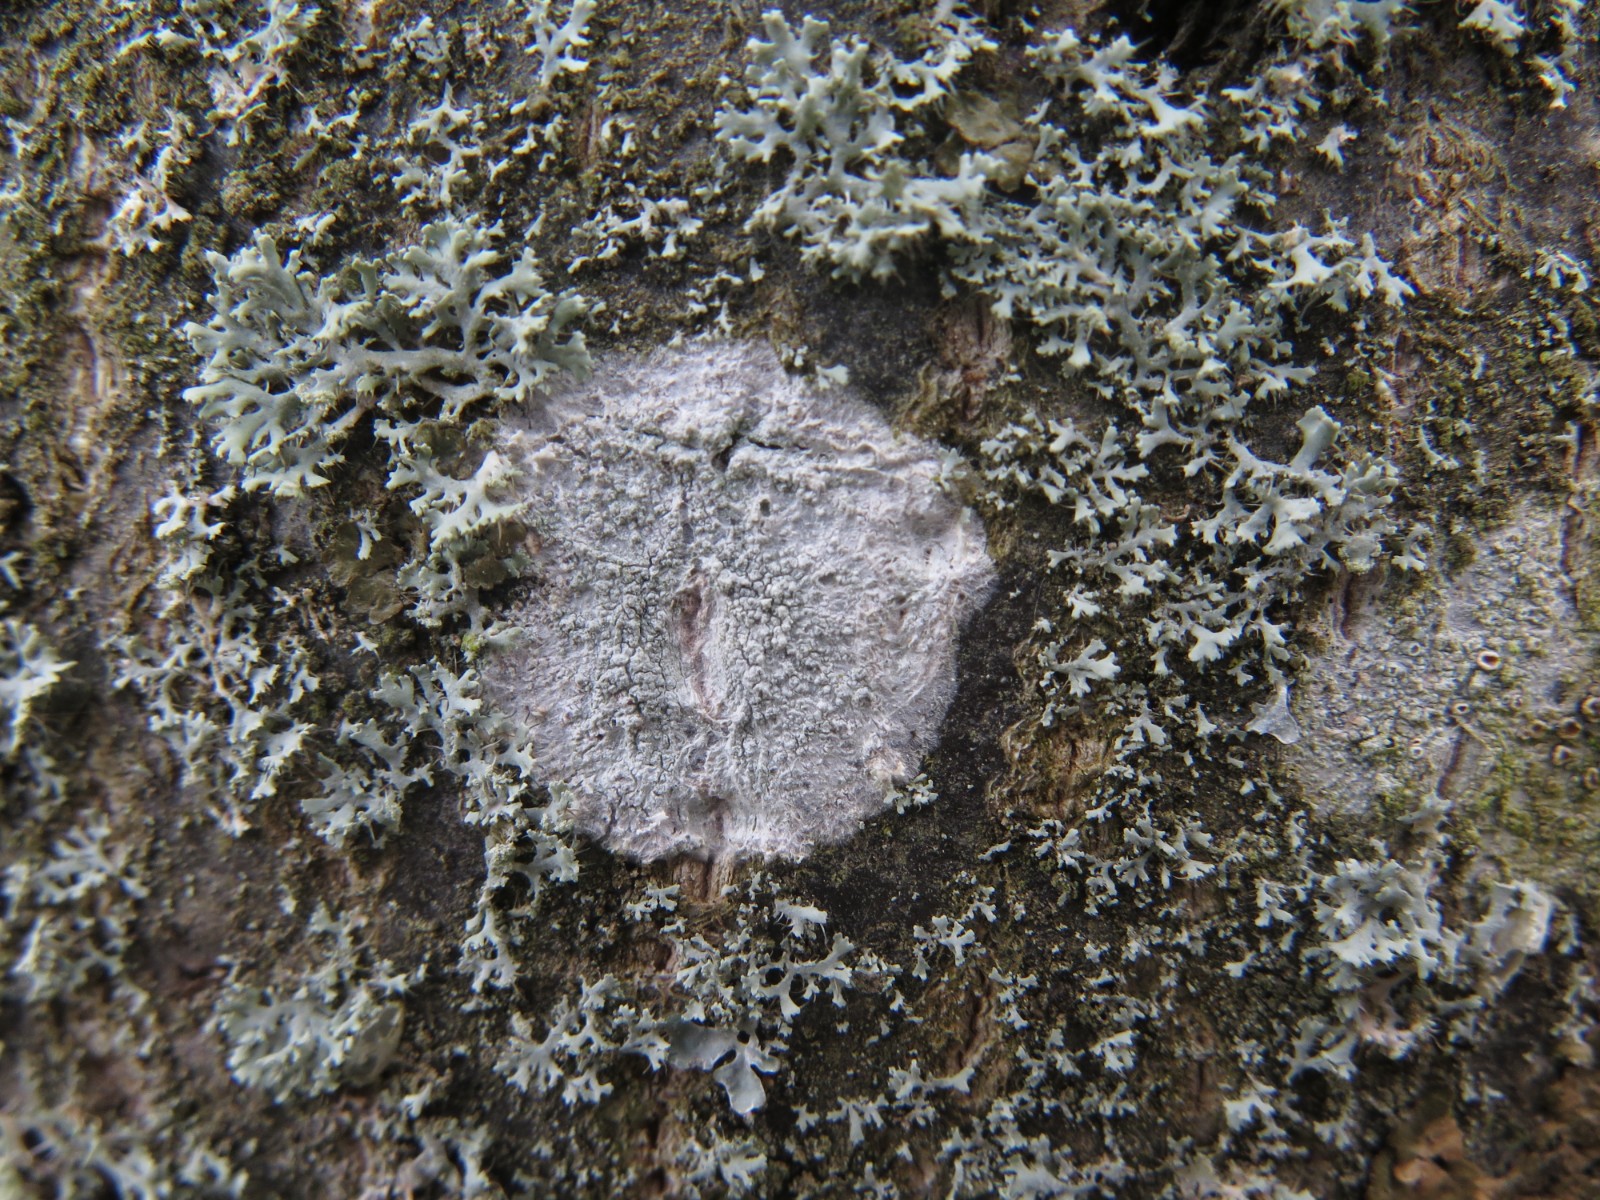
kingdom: Fungi
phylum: Ascomycota
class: Lecanoromycetes
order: Ostropales
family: Phlyctidaceae
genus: Phlyctis
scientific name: Phlyctis argena
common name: almindelig sølvlav
